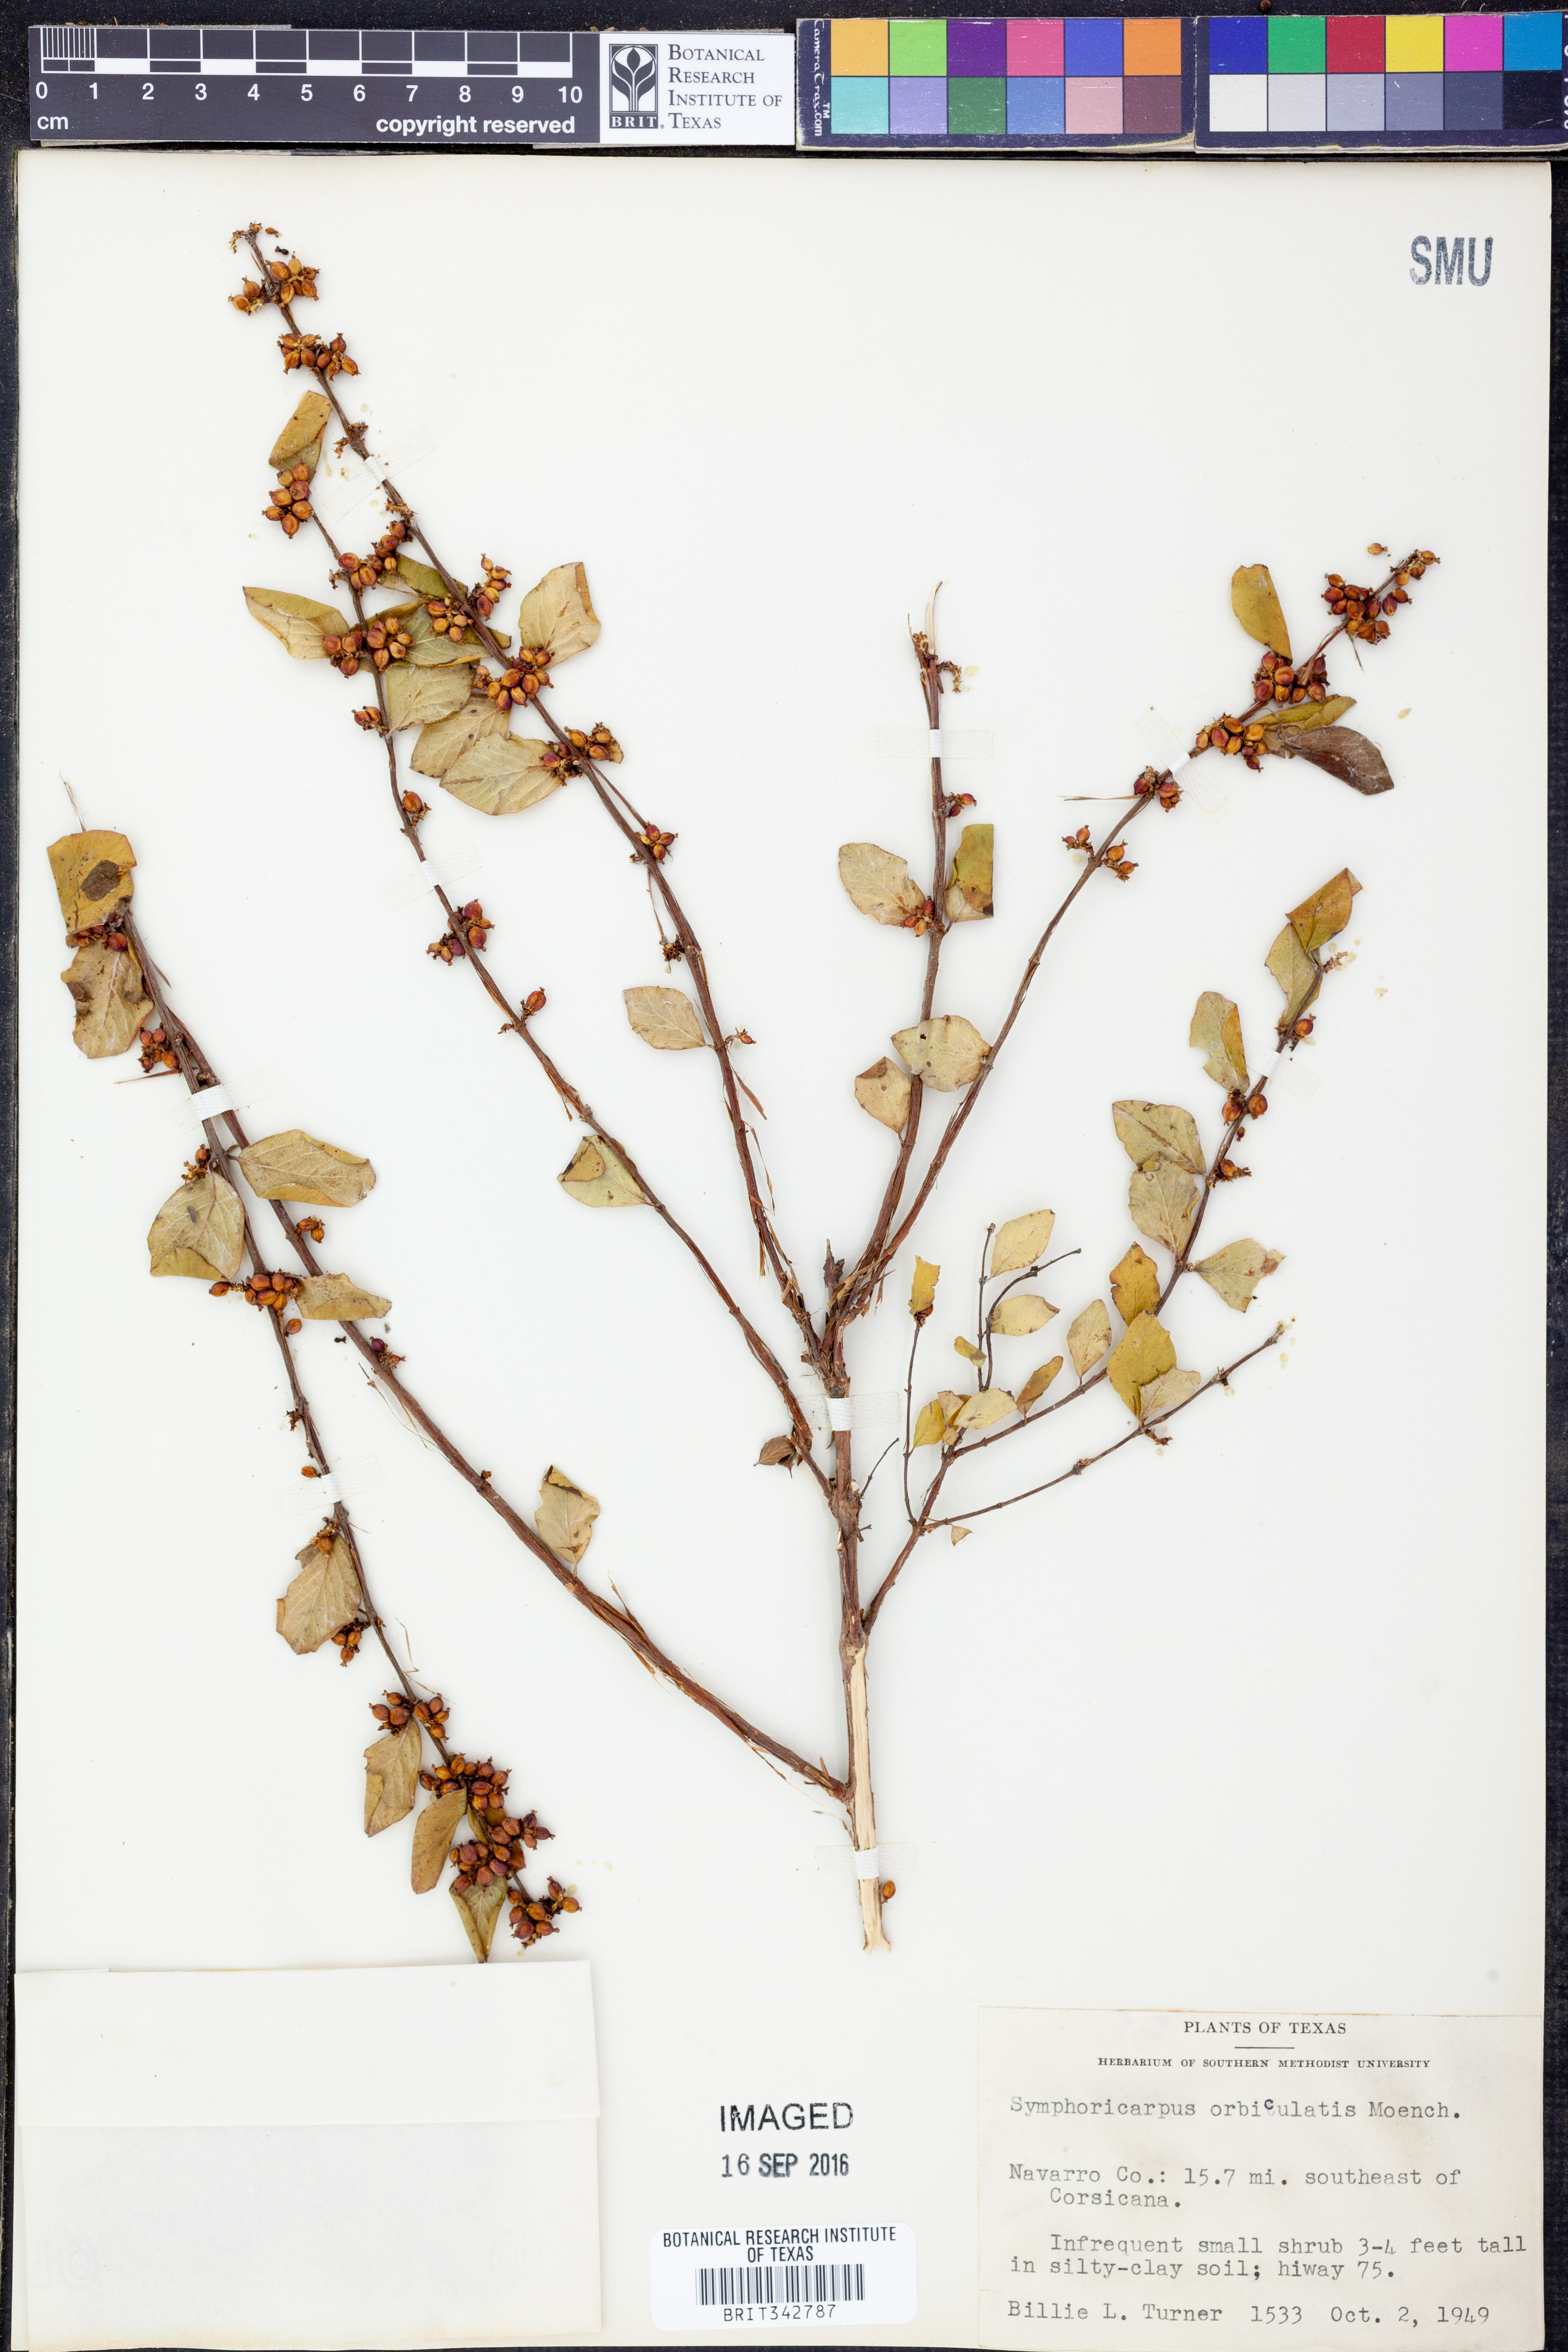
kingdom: Plantae
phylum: Tracheophyta
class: Magnoliopsida
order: Dipsacales
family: Caprifoliaceae
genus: Symphoricarpos
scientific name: Symphoricarpos orbiculatus
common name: Coralberry
